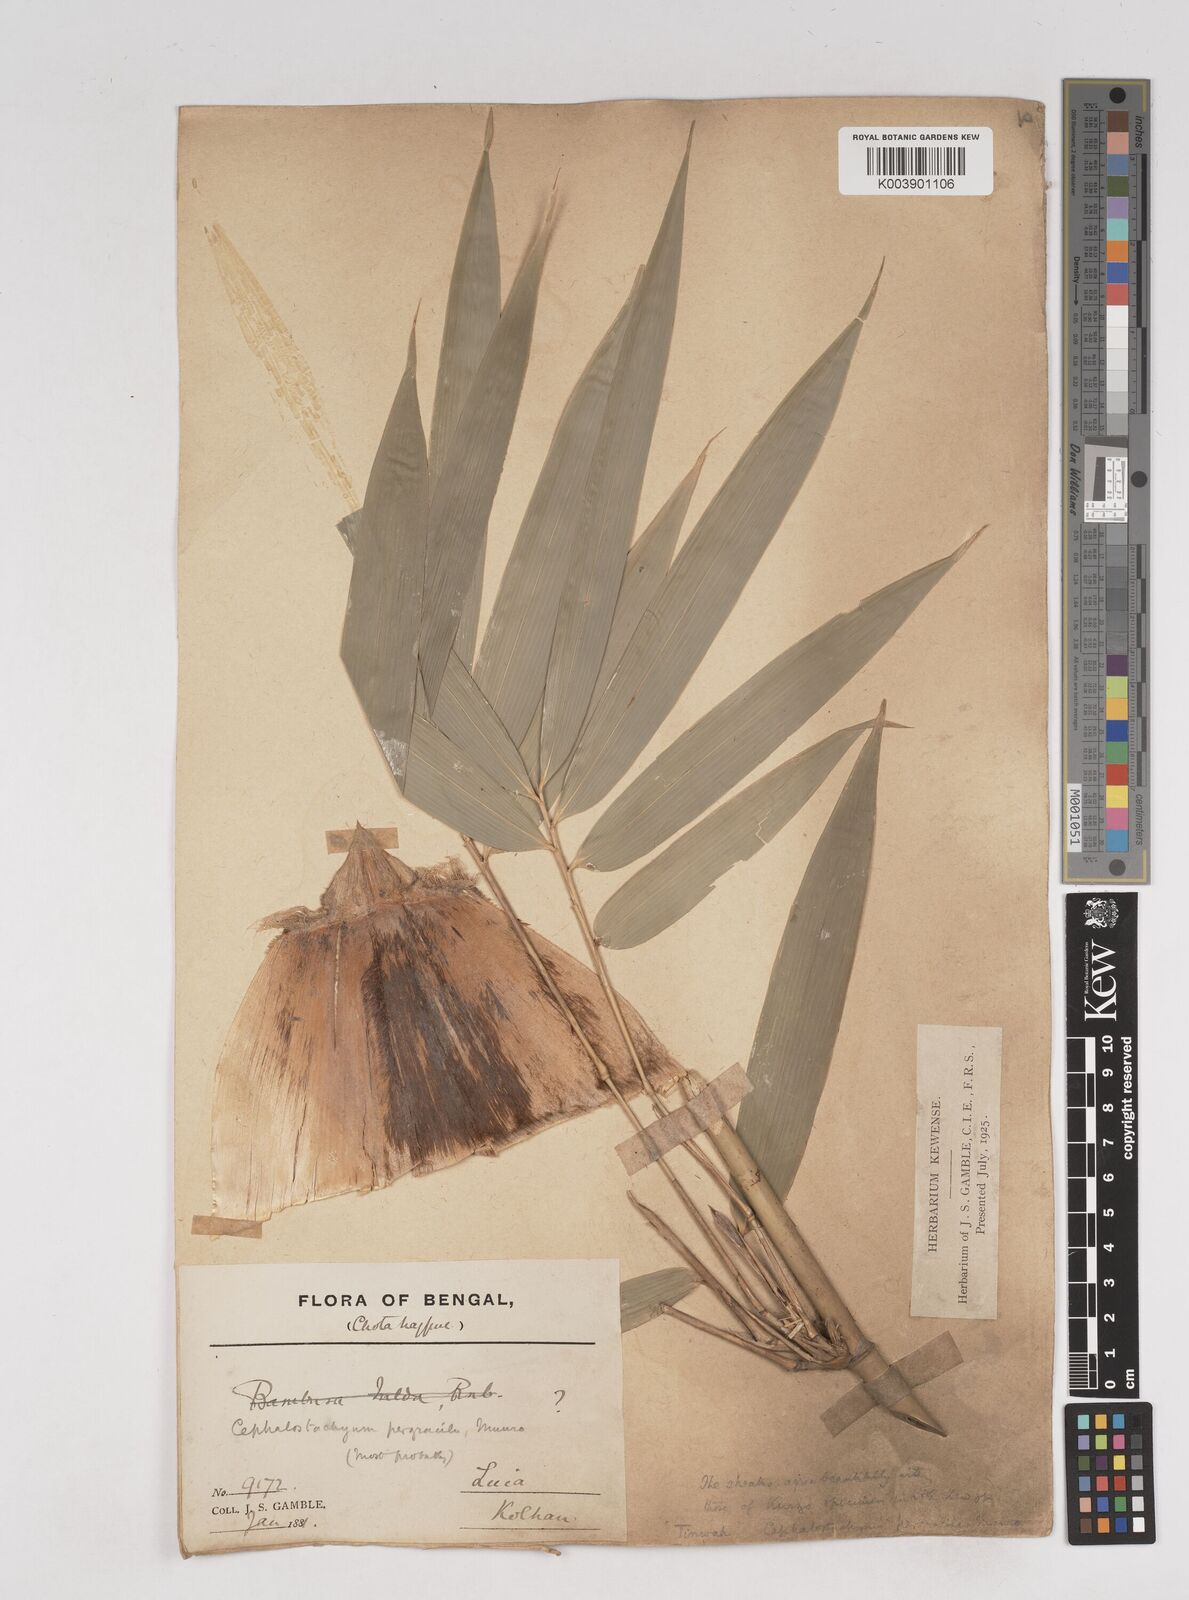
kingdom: Plantae
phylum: Tracheophyta
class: Liliopsida
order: Poales
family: Poaceae
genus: Schizostachyum
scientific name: Schizostachyum pergracile
